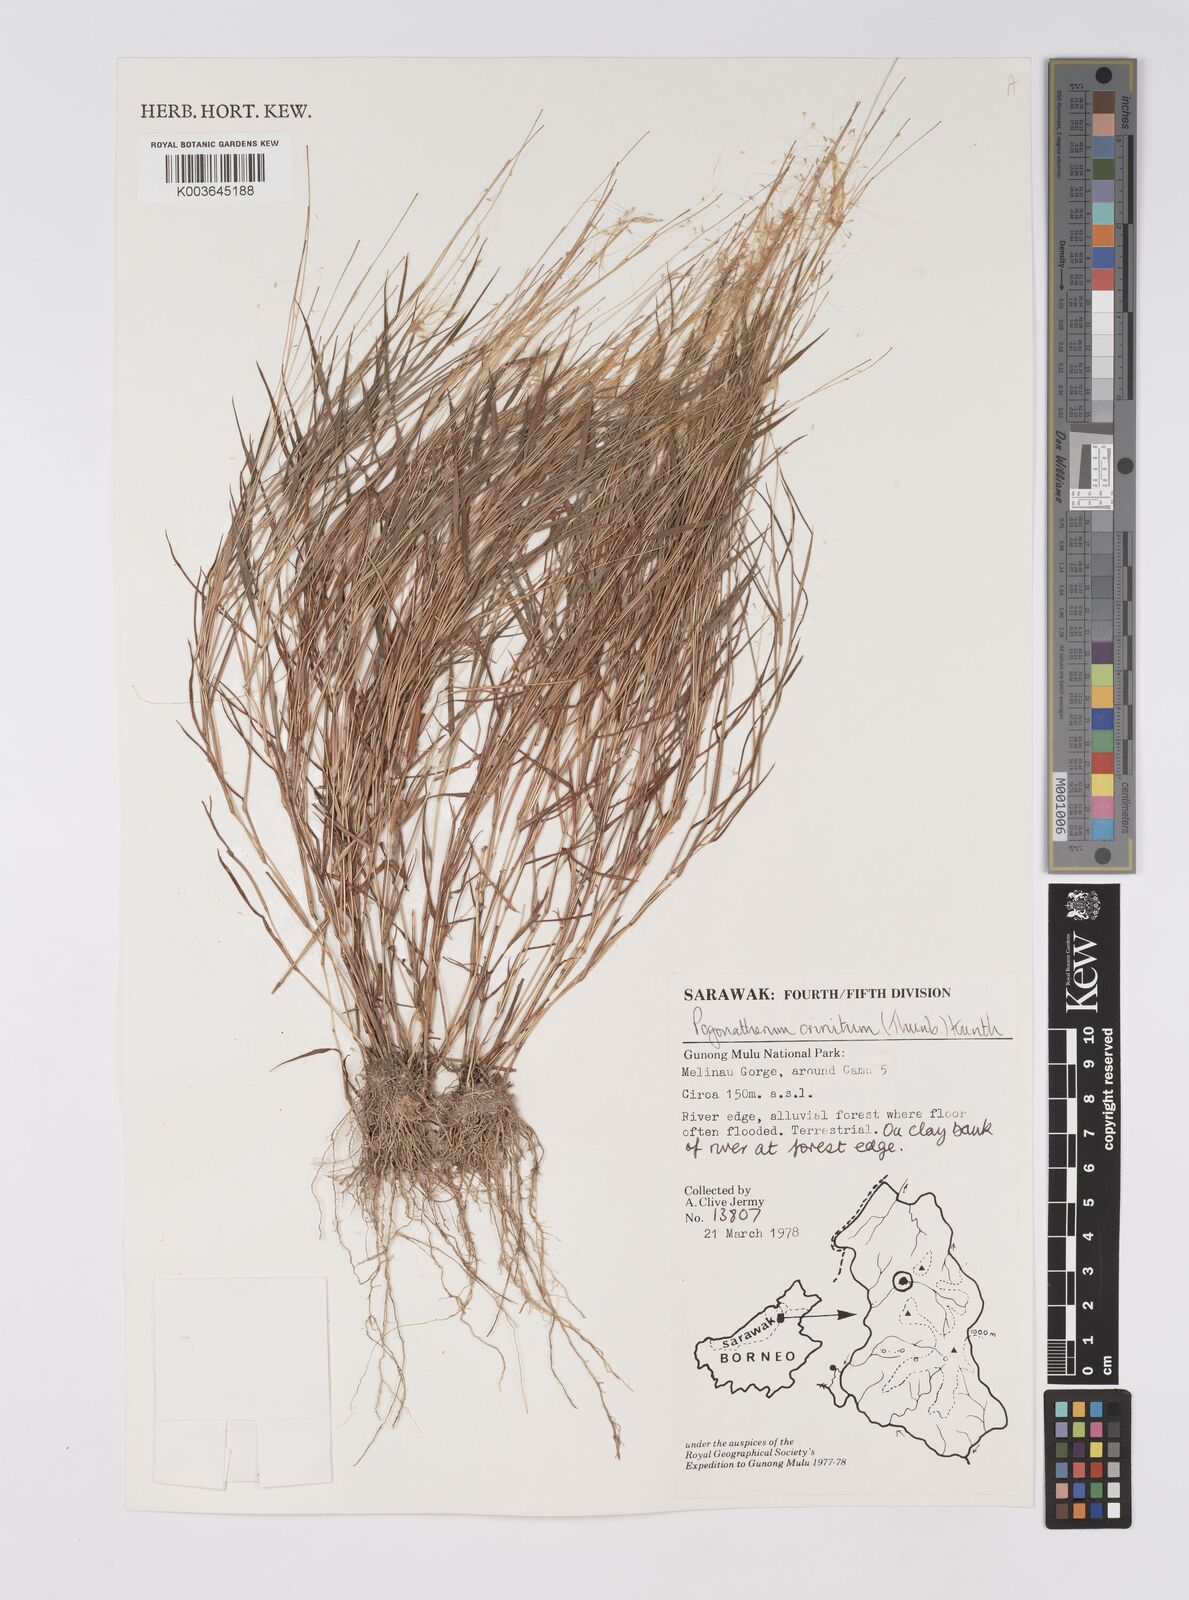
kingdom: Plantae
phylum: Tracheophyta
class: Liliopsida
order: Poales
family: Poaceae
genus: Pogonatherum
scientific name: Pogonatherum crinitum
